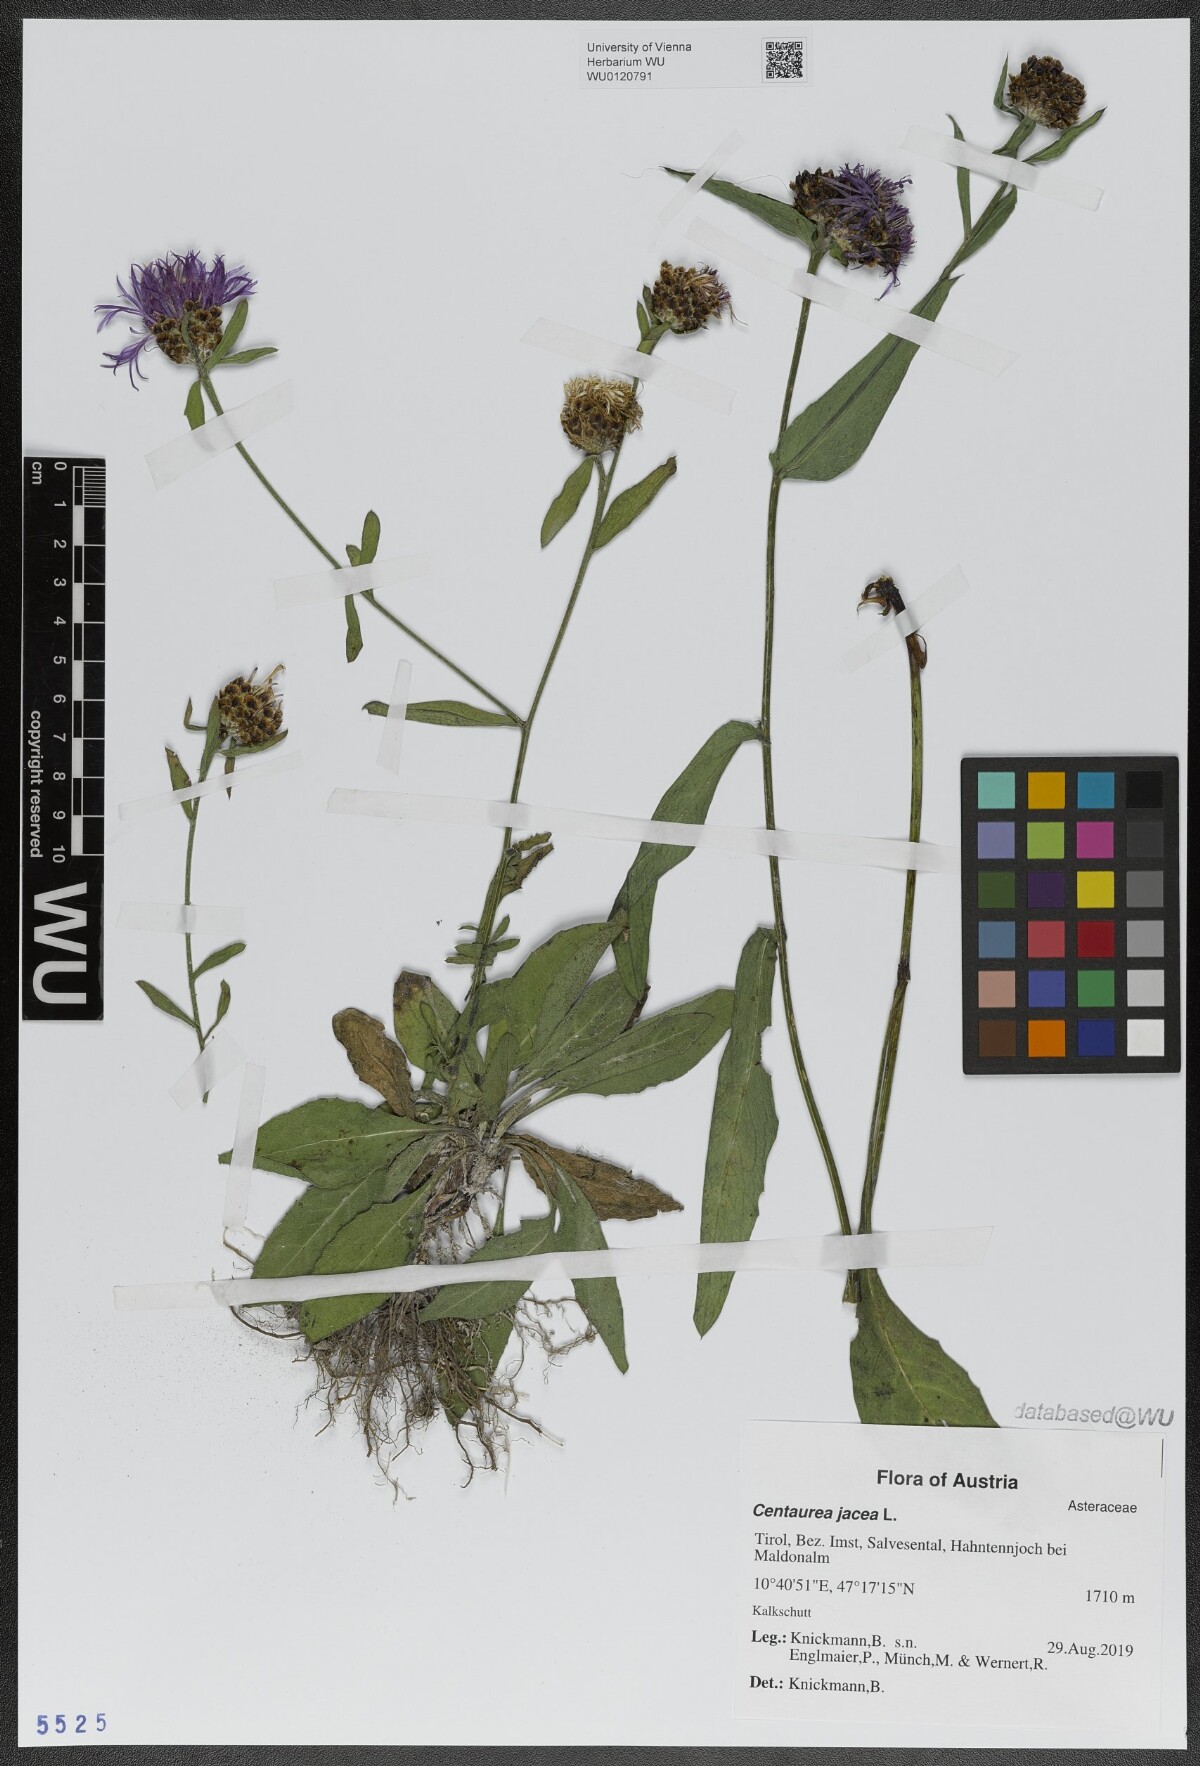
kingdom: Plantae
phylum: Tracheophyta
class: Magnoliopsida
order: Asterales
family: Asteraceae
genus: Centaurea
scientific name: Centaurea jacea
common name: Brown knapweed
